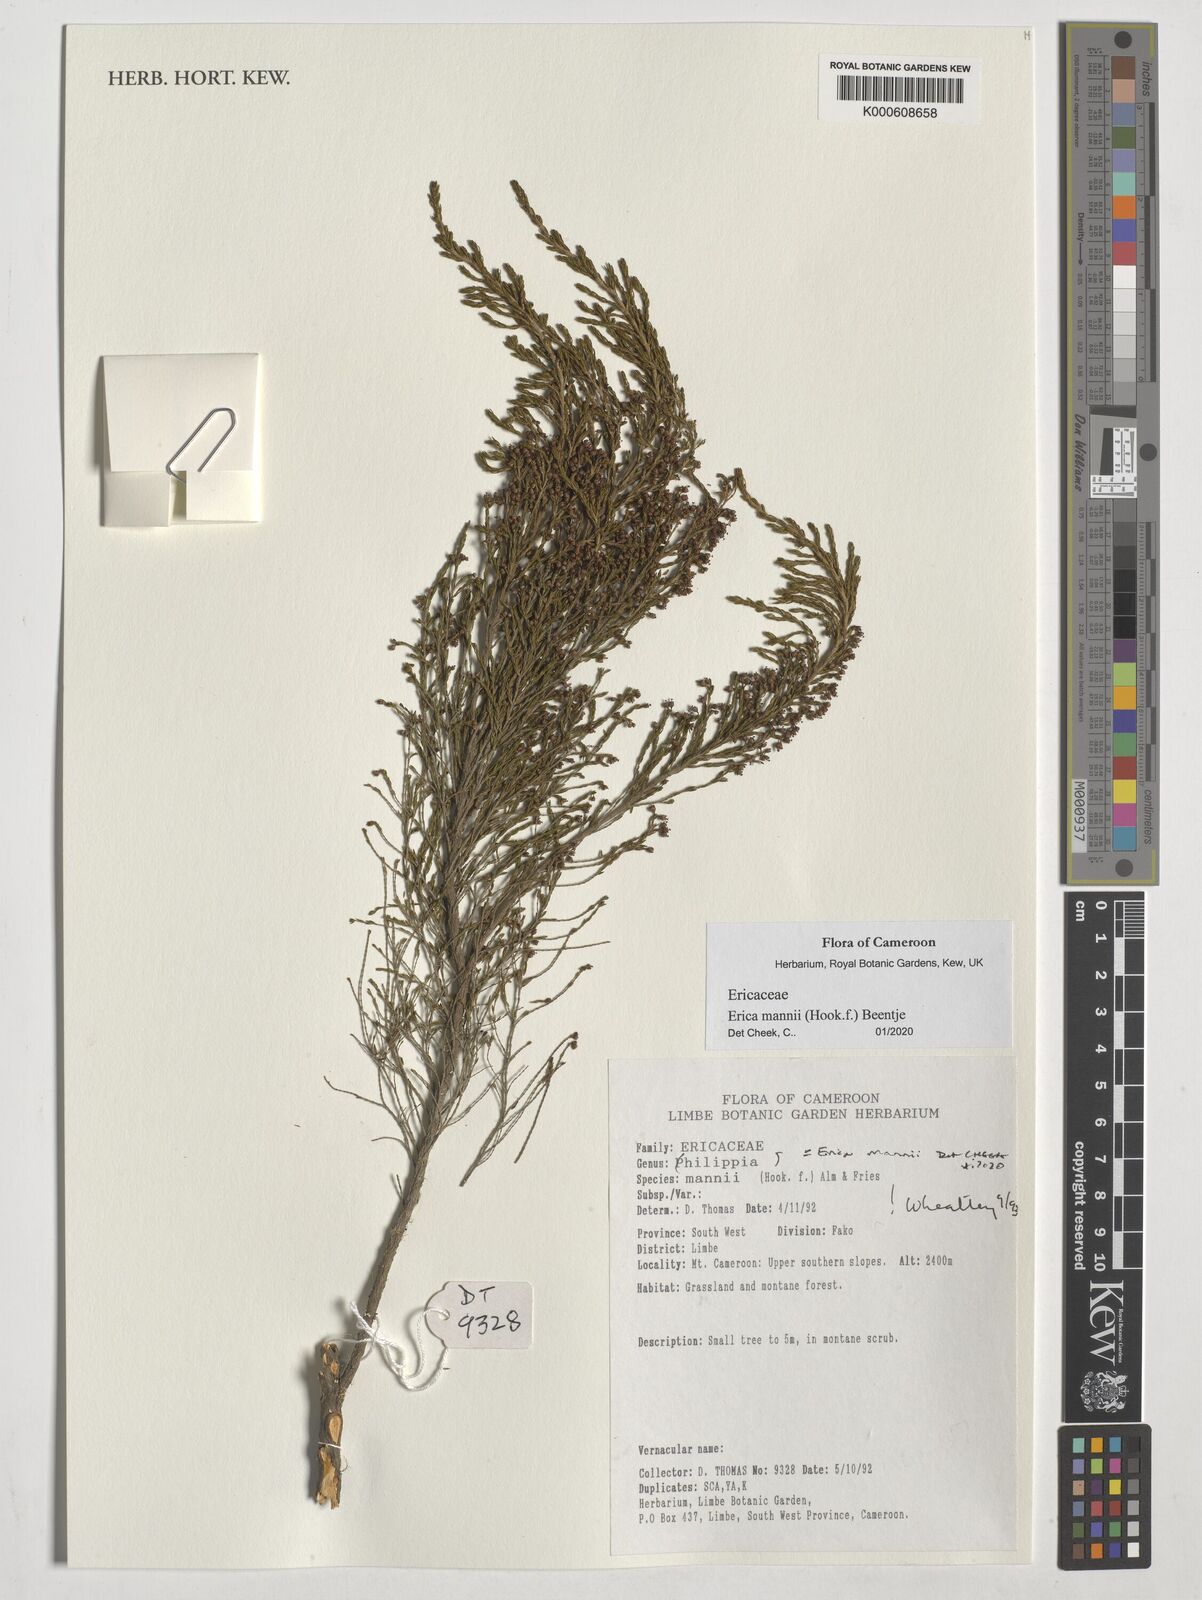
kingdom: Plantae
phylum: Tracheophyta
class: Magnoliopsida
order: Ericales
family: Ericaceae
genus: Erica
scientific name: Erica mannii
